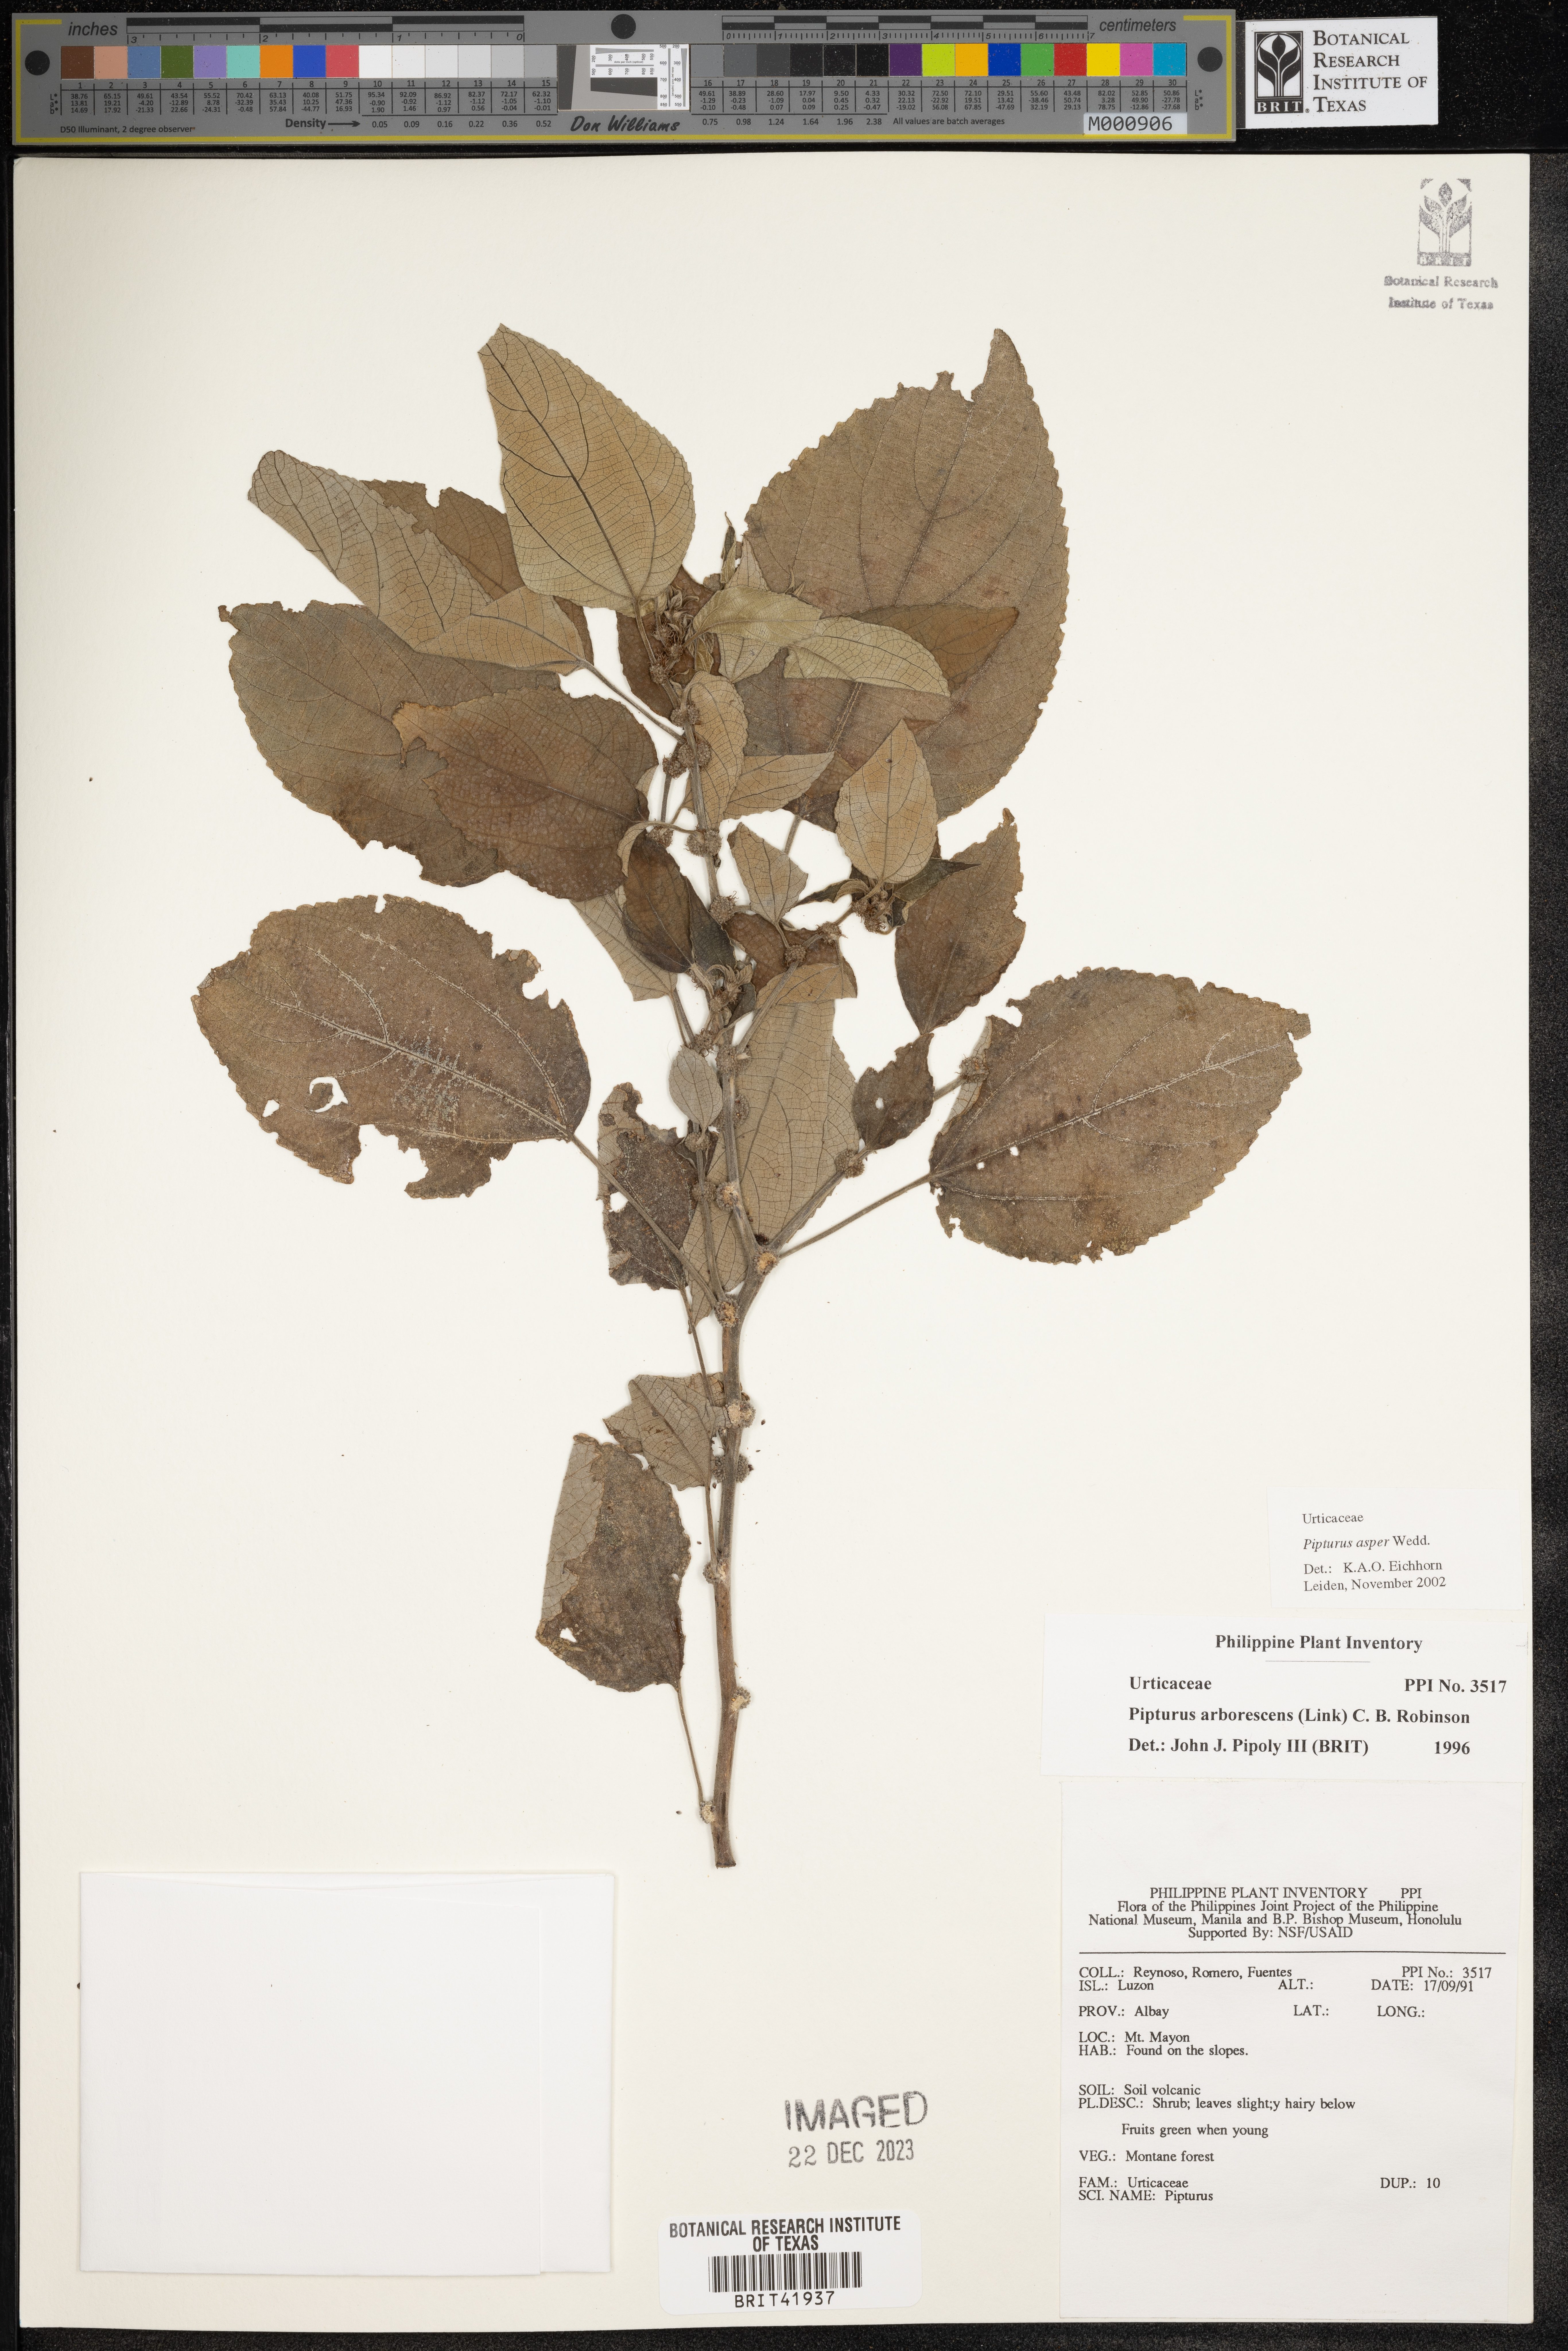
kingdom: Plantae
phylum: Tracheophyta
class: Magnoliopsida
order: Rosales
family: Urticaceae
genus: Pipturus
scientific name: Pipturus arborescens
